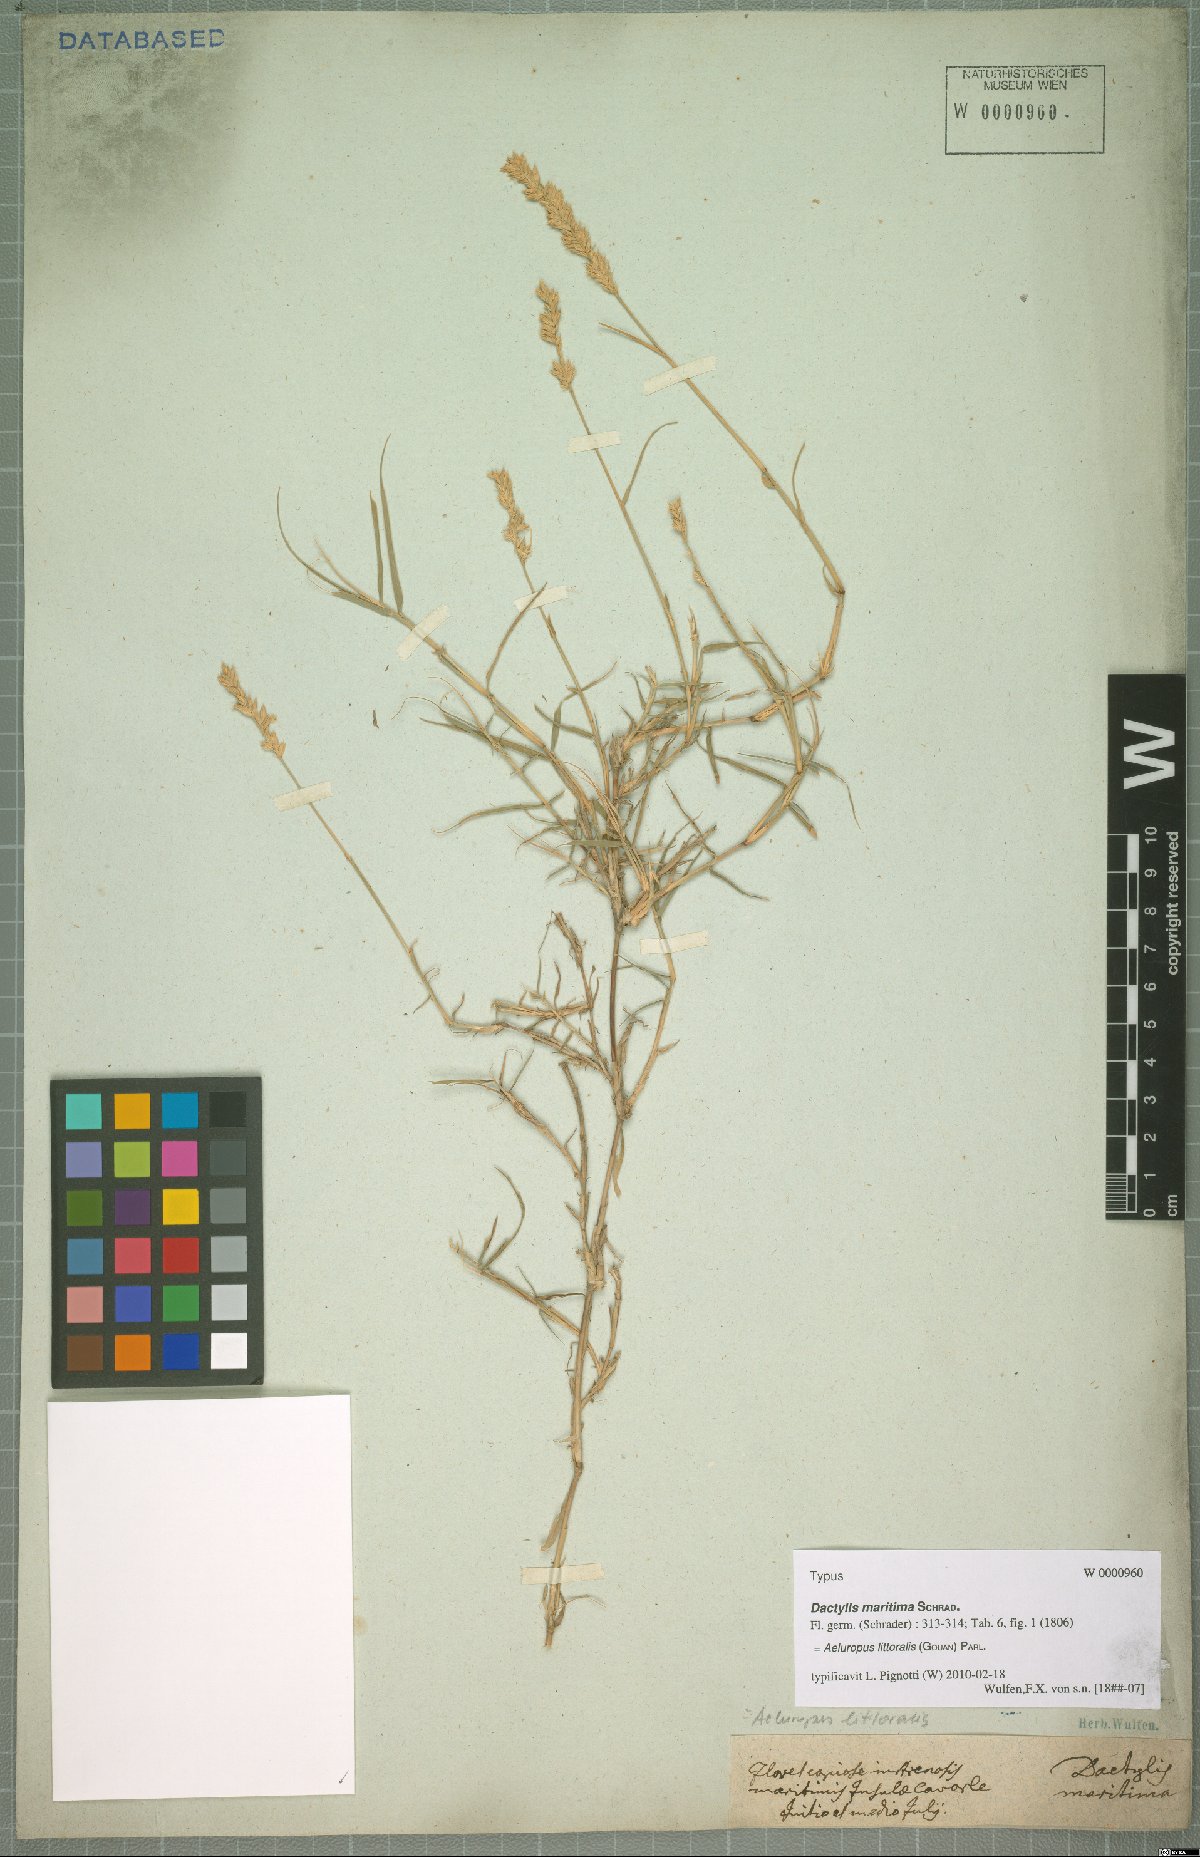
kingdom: Plantae
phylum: Tracheophyta
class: Liliopsida
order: Poales
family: Poaceae
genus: Aeluropus
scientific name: Aeluropus littoralis
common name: Indian walnut
